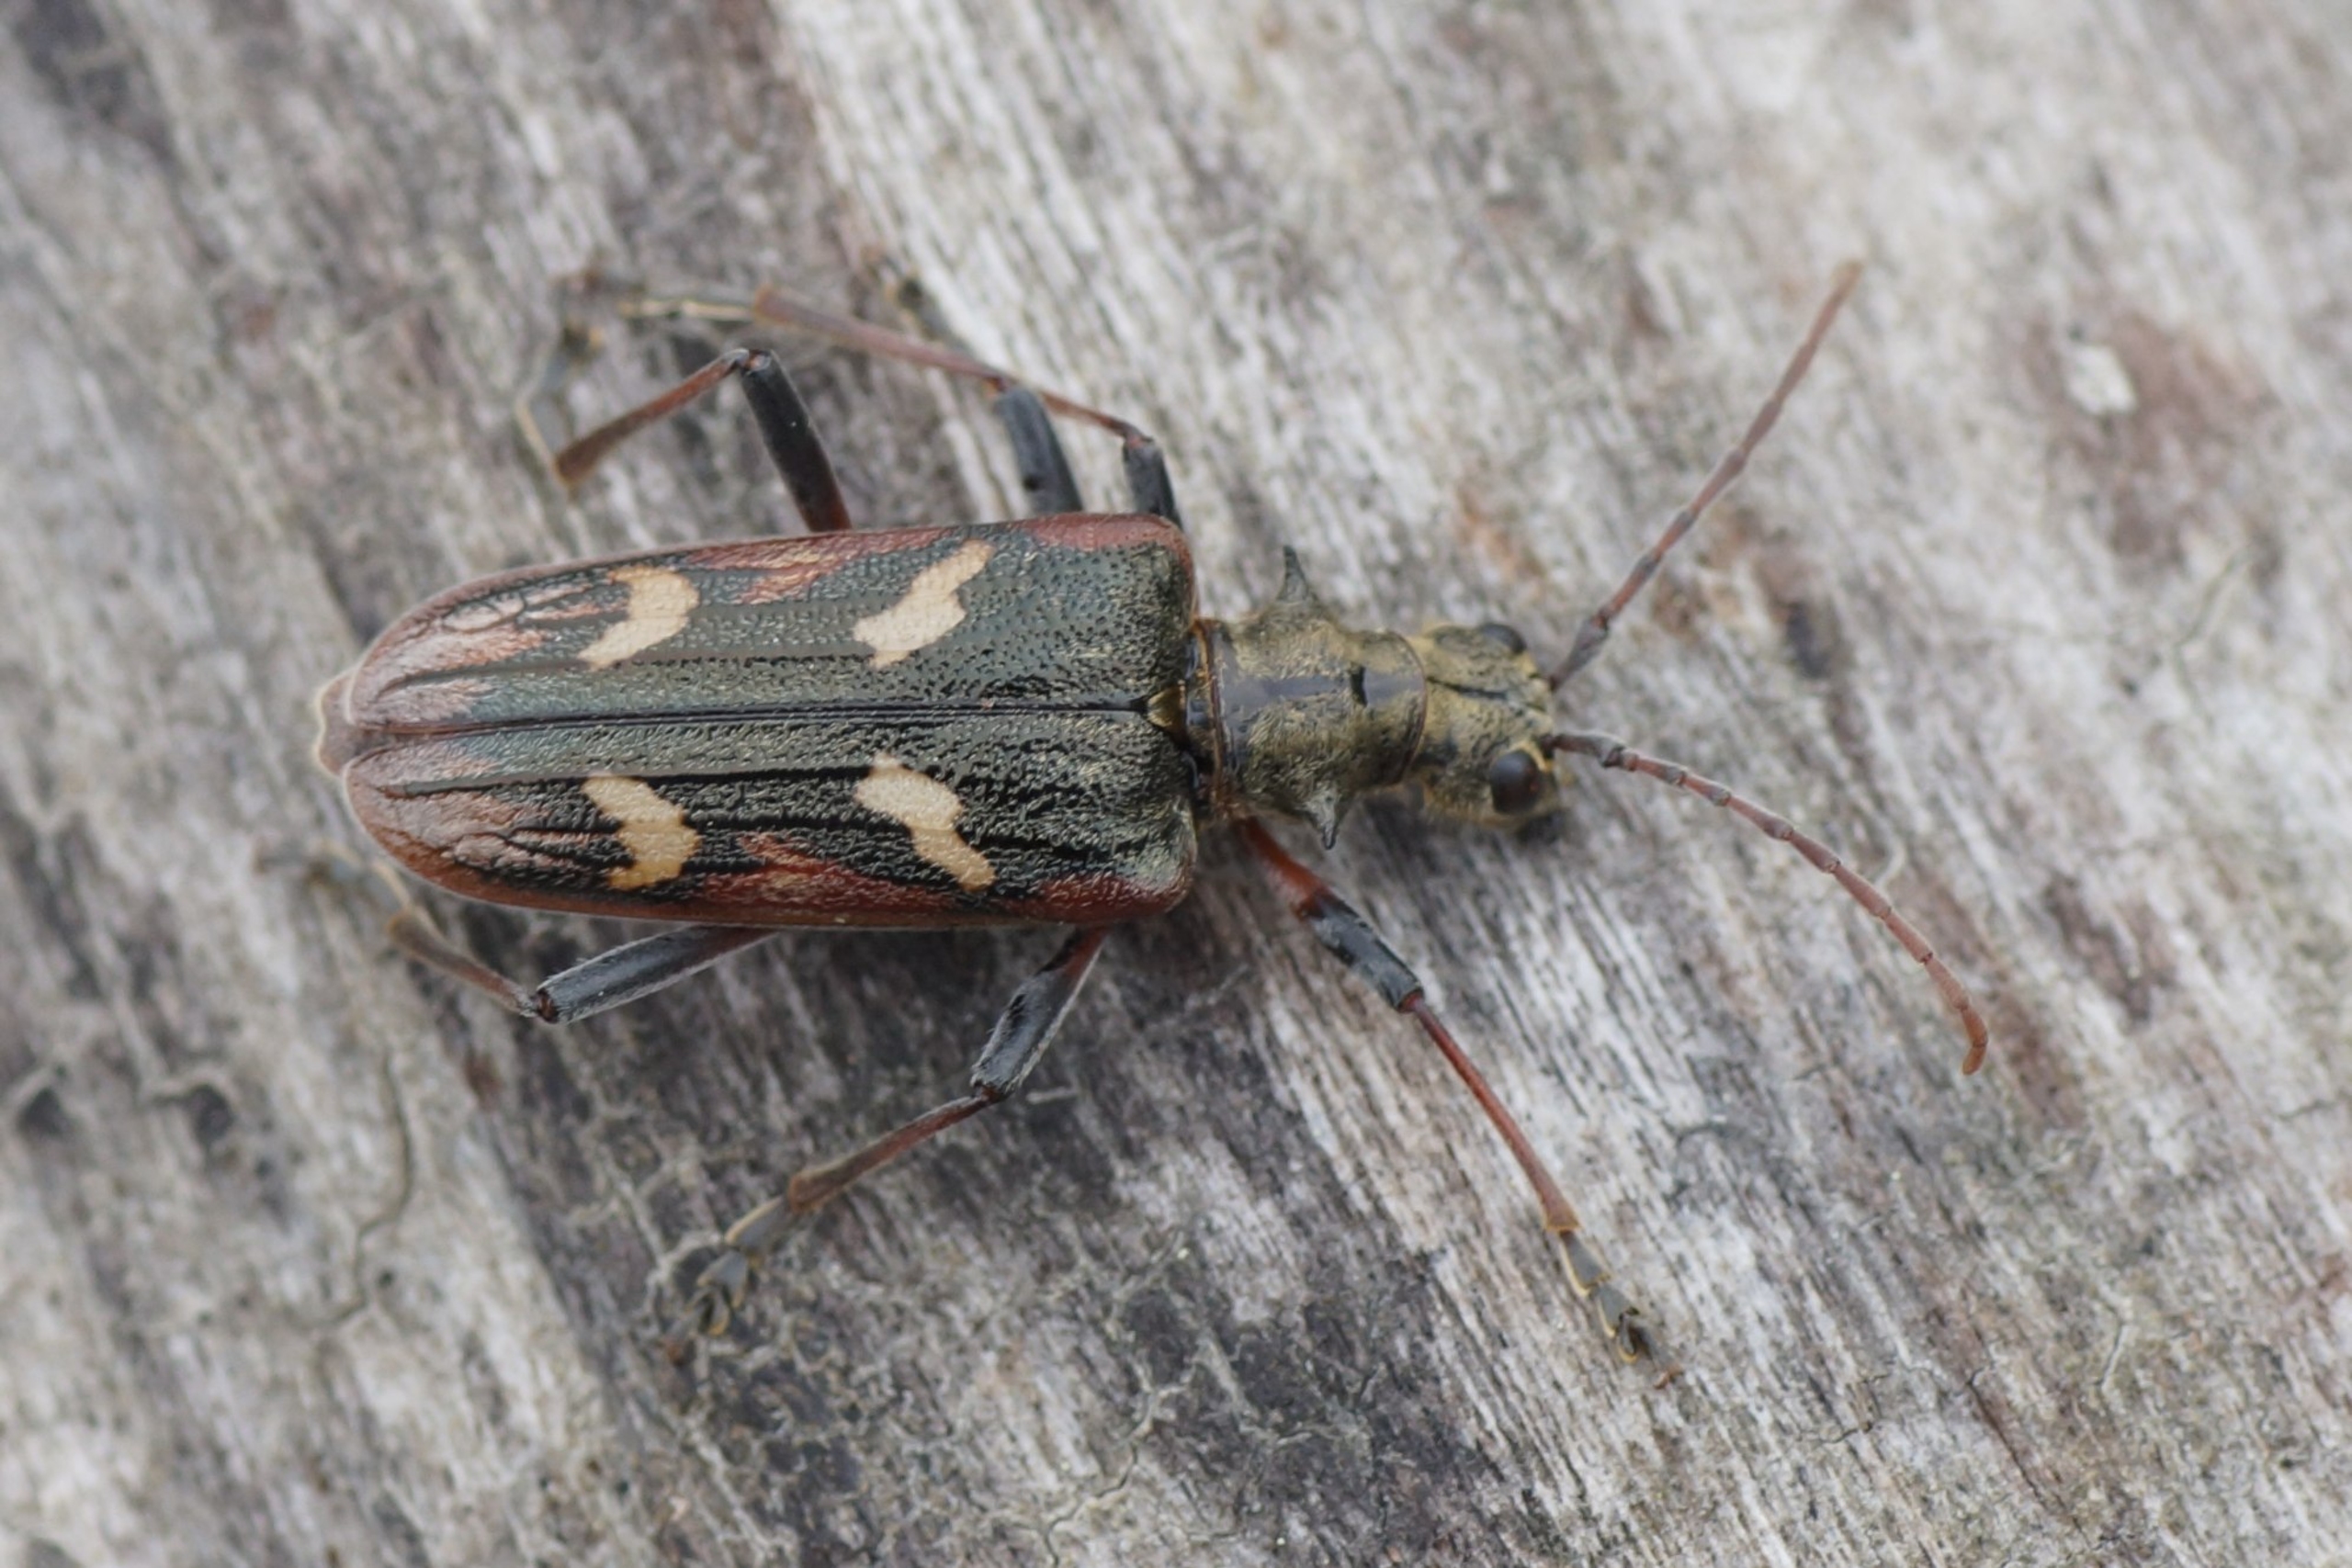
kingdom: Animalia
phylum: Arthropoda
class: Insecta
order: Coleoptera
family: Cerambycidae
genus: Rhagium
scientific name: Rhagium bifasciatum
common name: Båndet tandbuk
